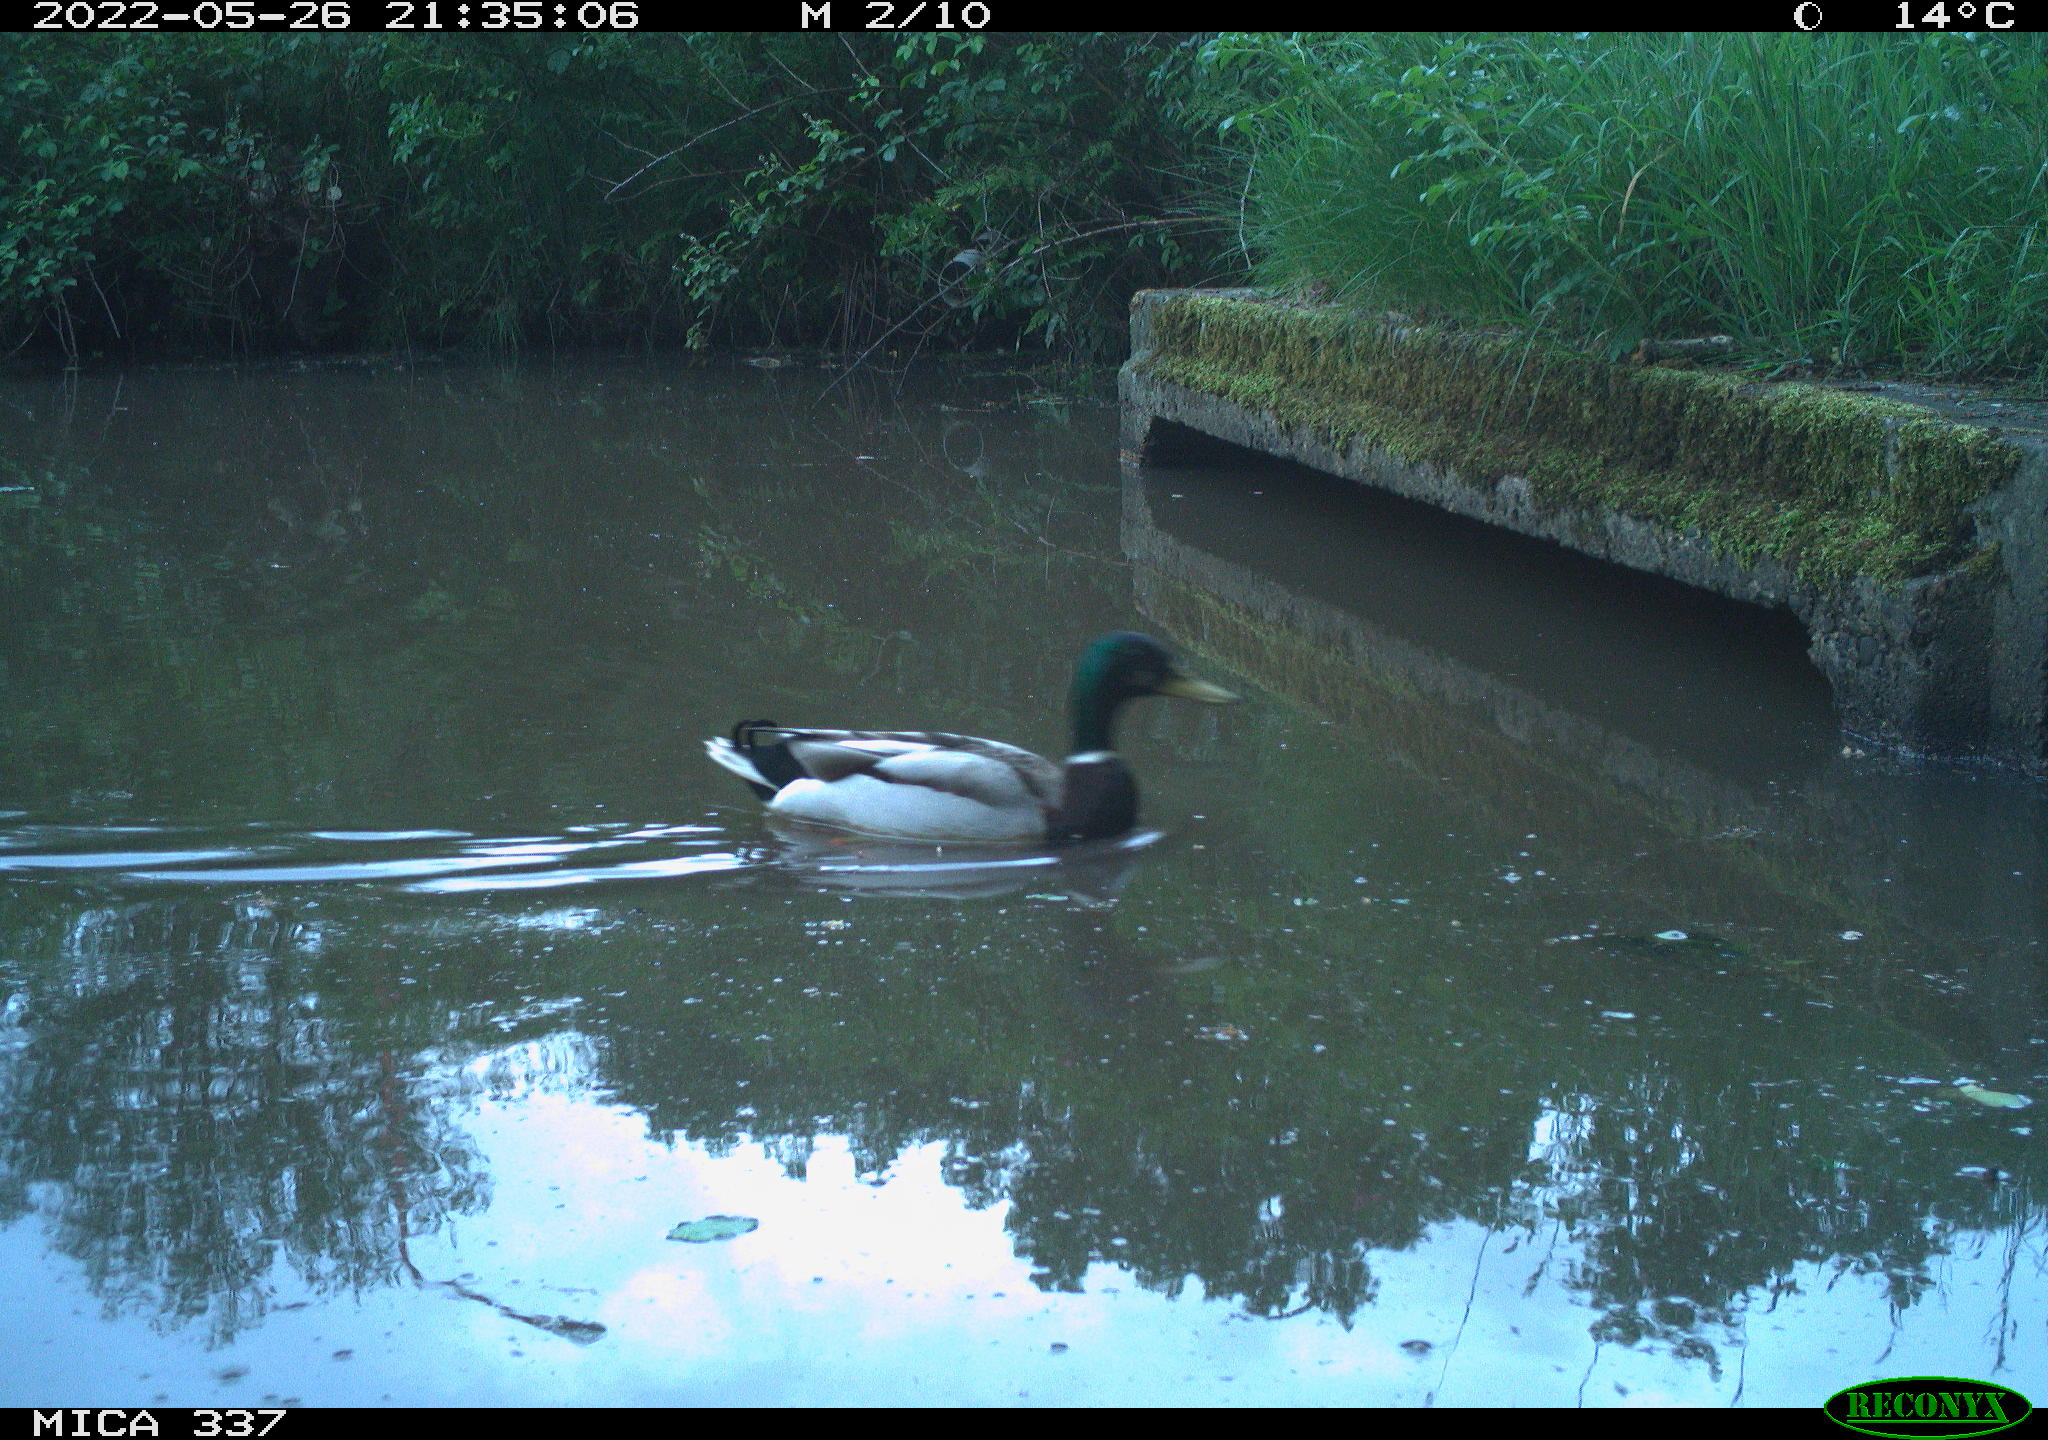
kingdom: Animalia
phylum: Chordata
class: Aves
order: Anseriformes
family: Anatidae
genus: Anas
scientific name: Anas platyrhynchos
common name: Mallard
